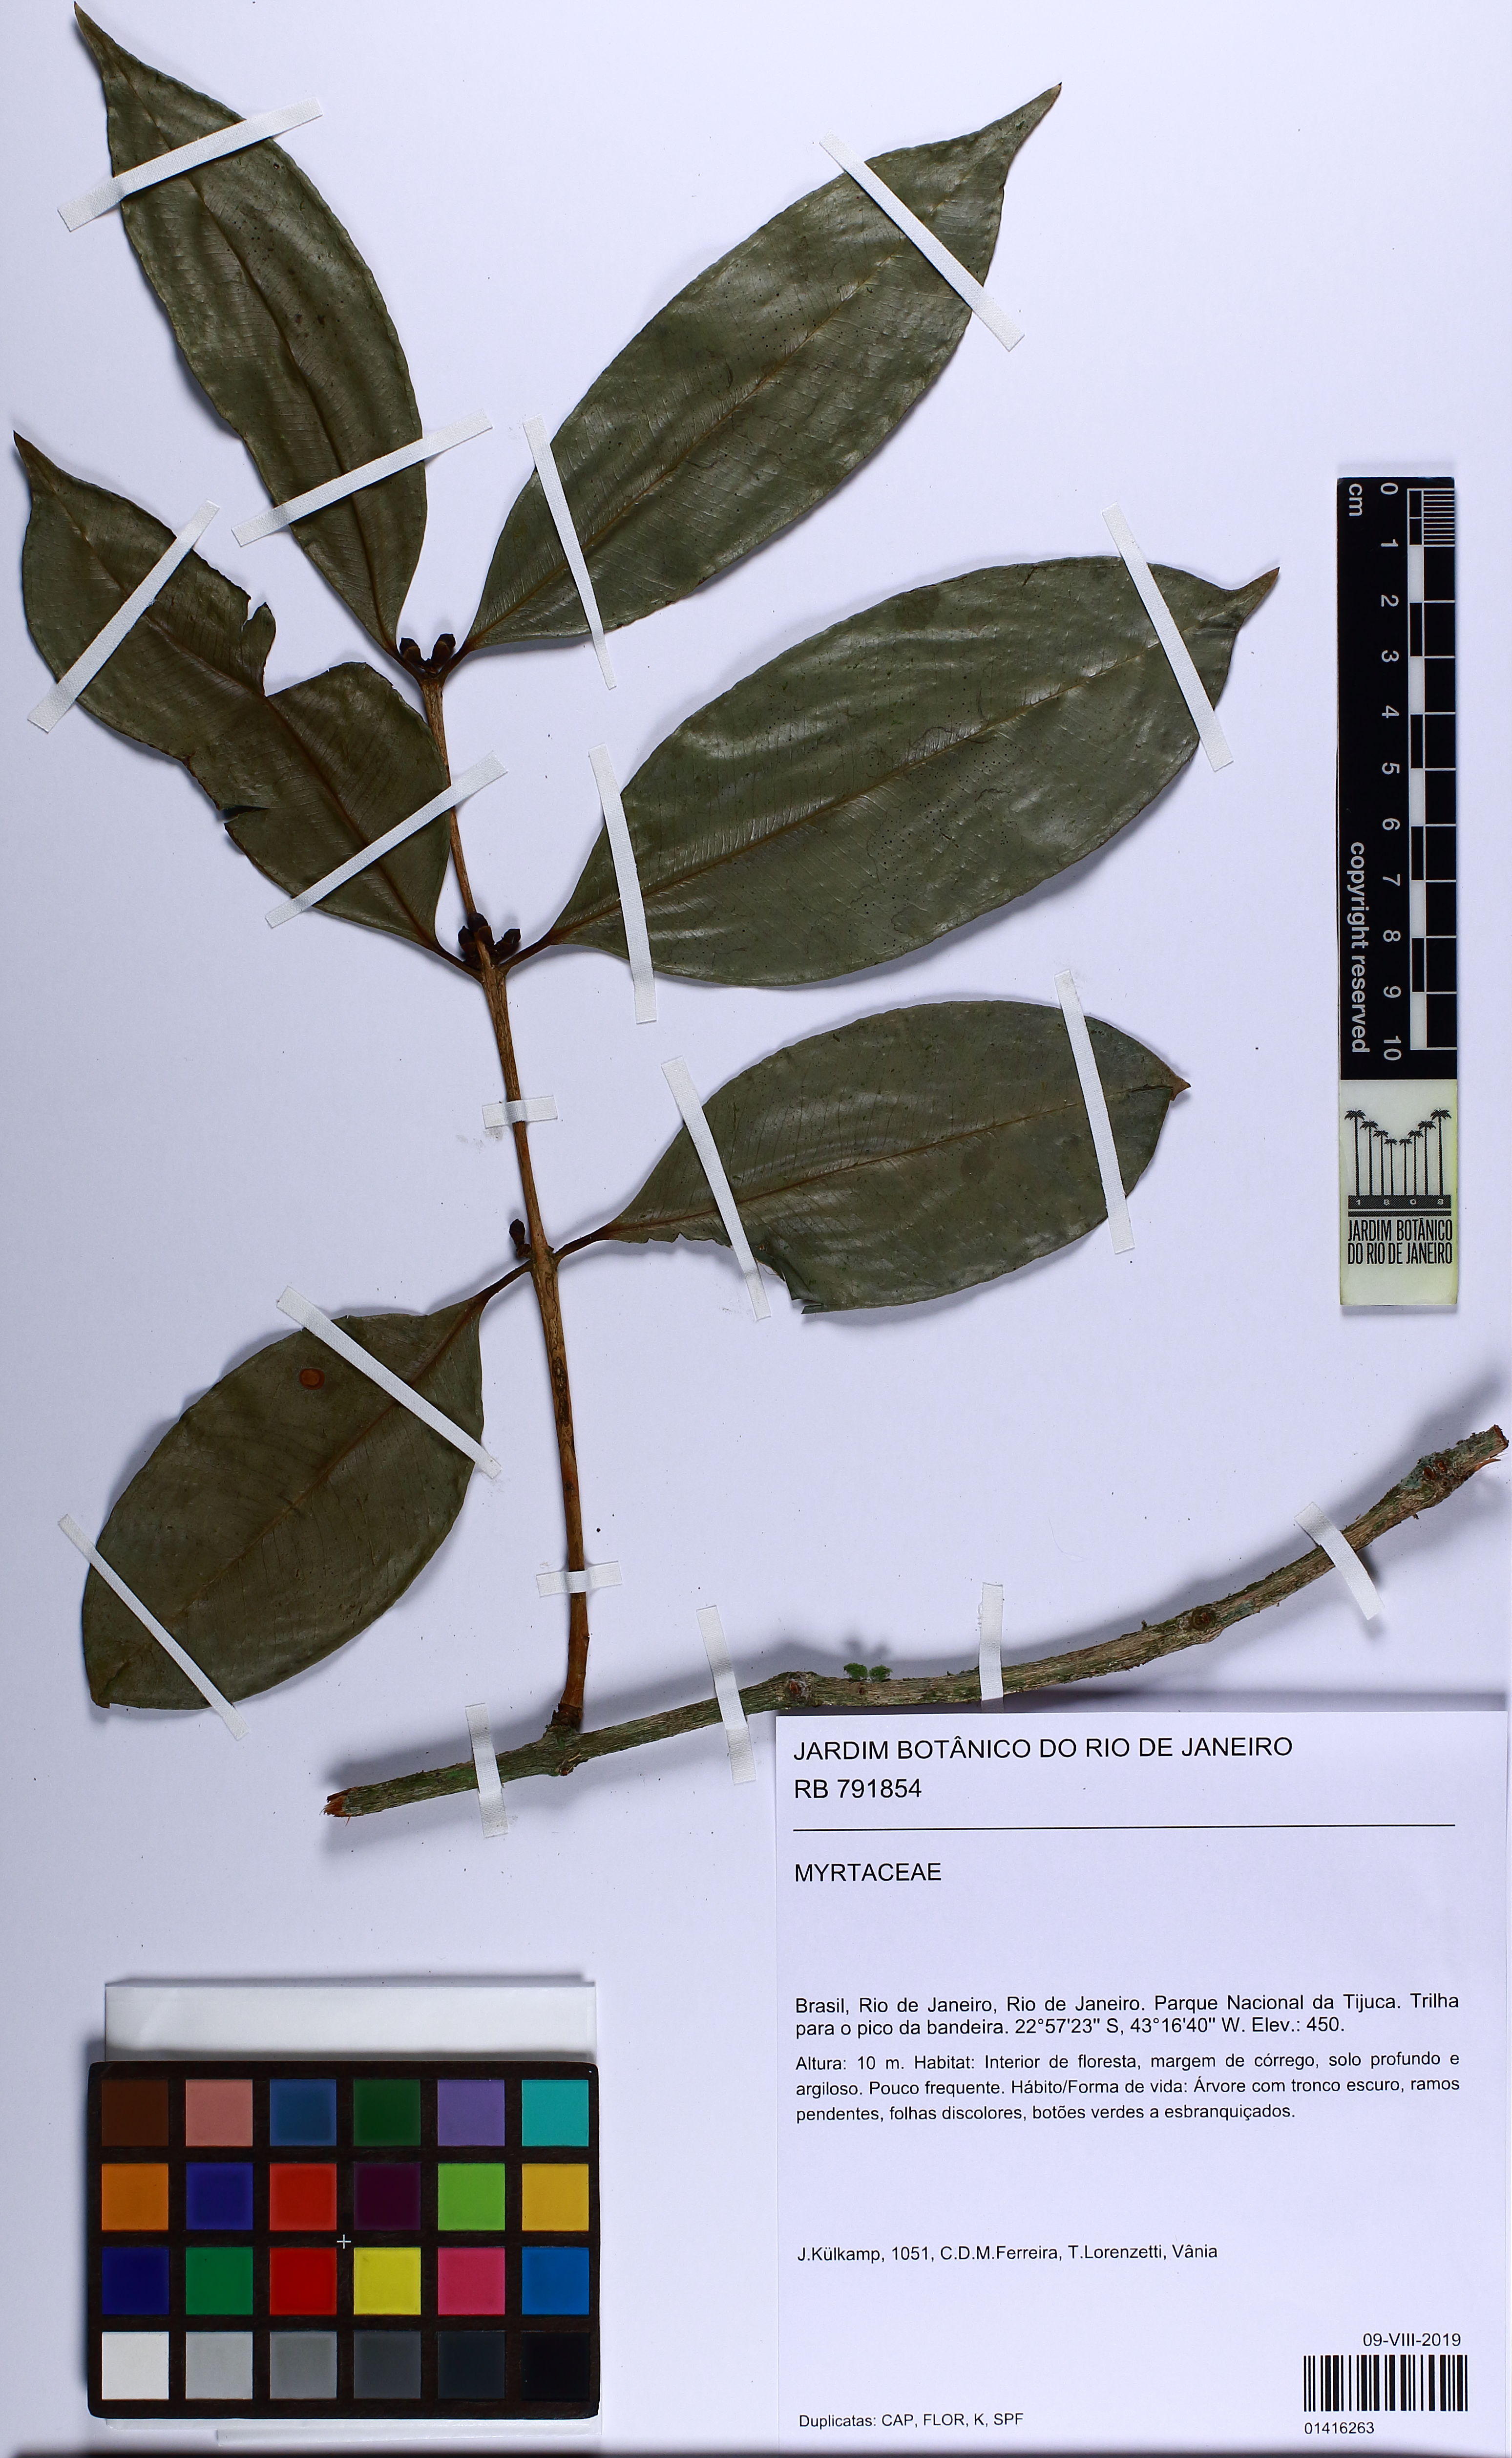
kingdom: Plantae
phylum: Tracheophyta
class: Magnoliopsida
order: Myrtales
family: Myrtaceae
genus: Neomitranthes
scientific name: Neomitranthes warmingiana
